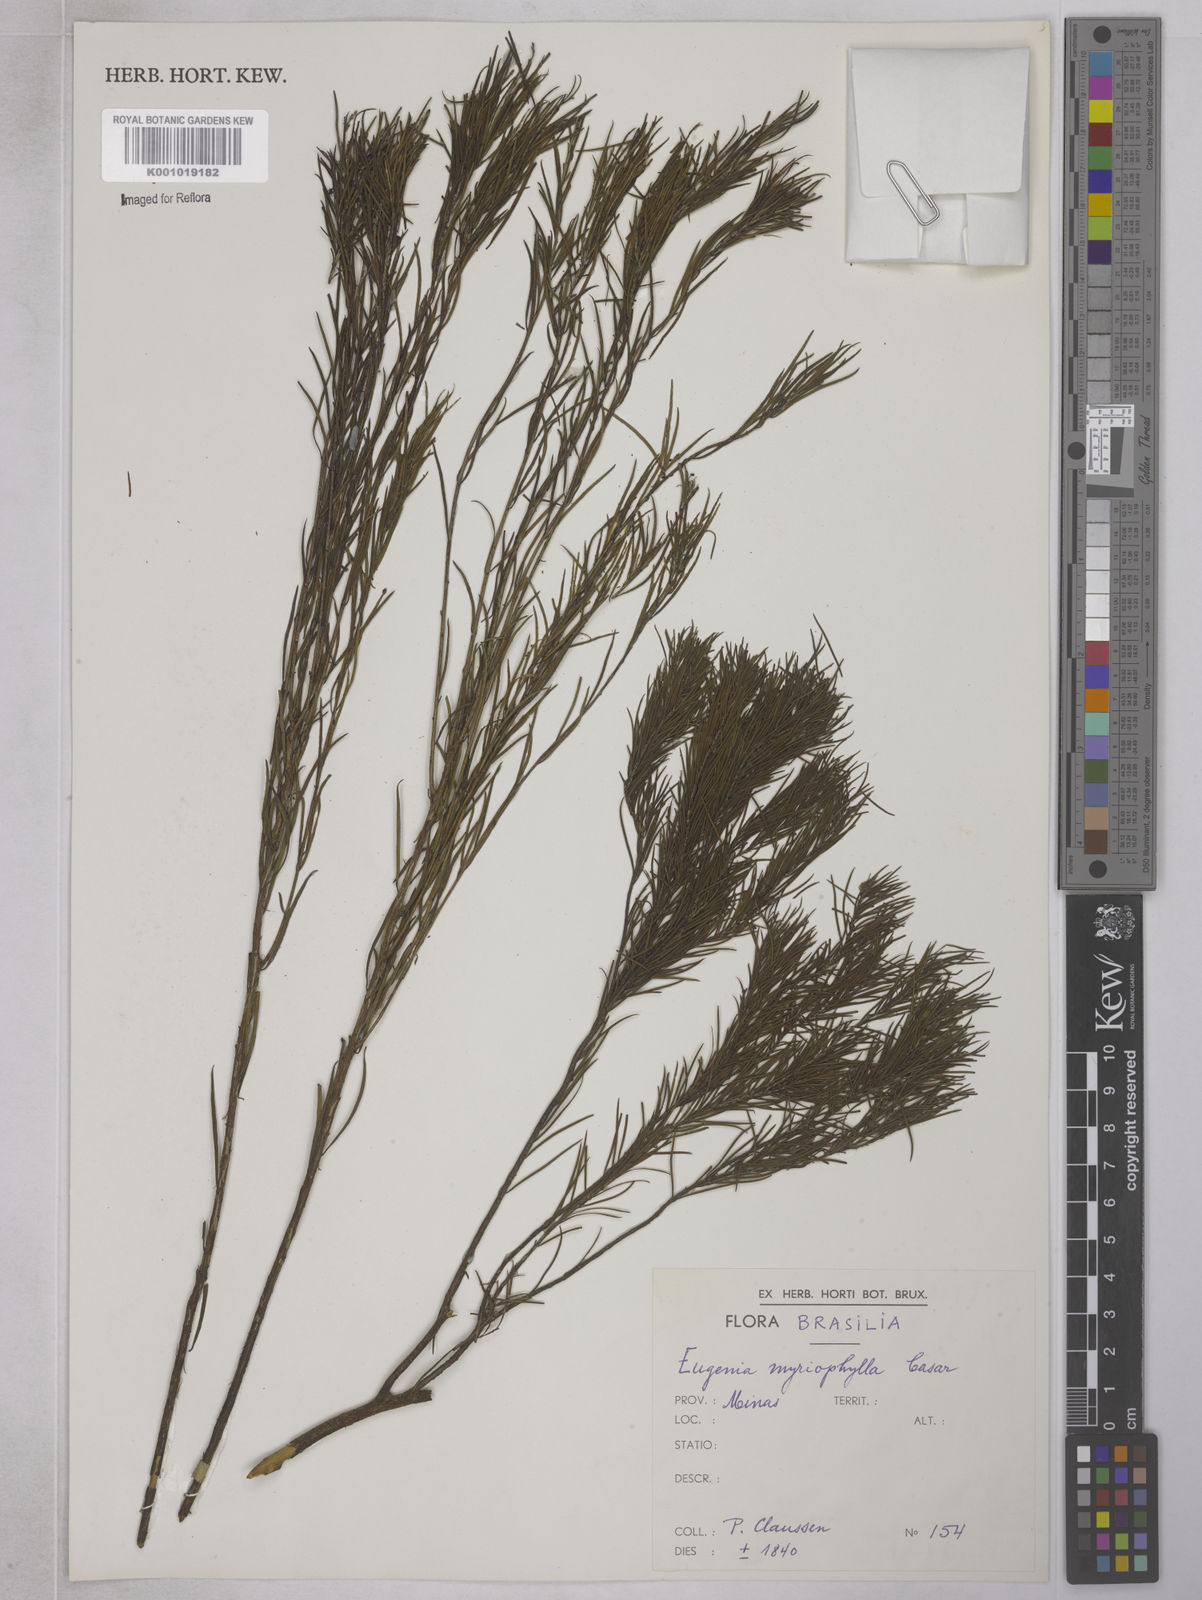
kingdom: Plantae
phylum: Tracheophyta
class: Magnoliopsida
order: Myrtales
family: Myrtaceae
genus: Blepharocalyx
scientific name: Blepharocalyx myriophyllus
